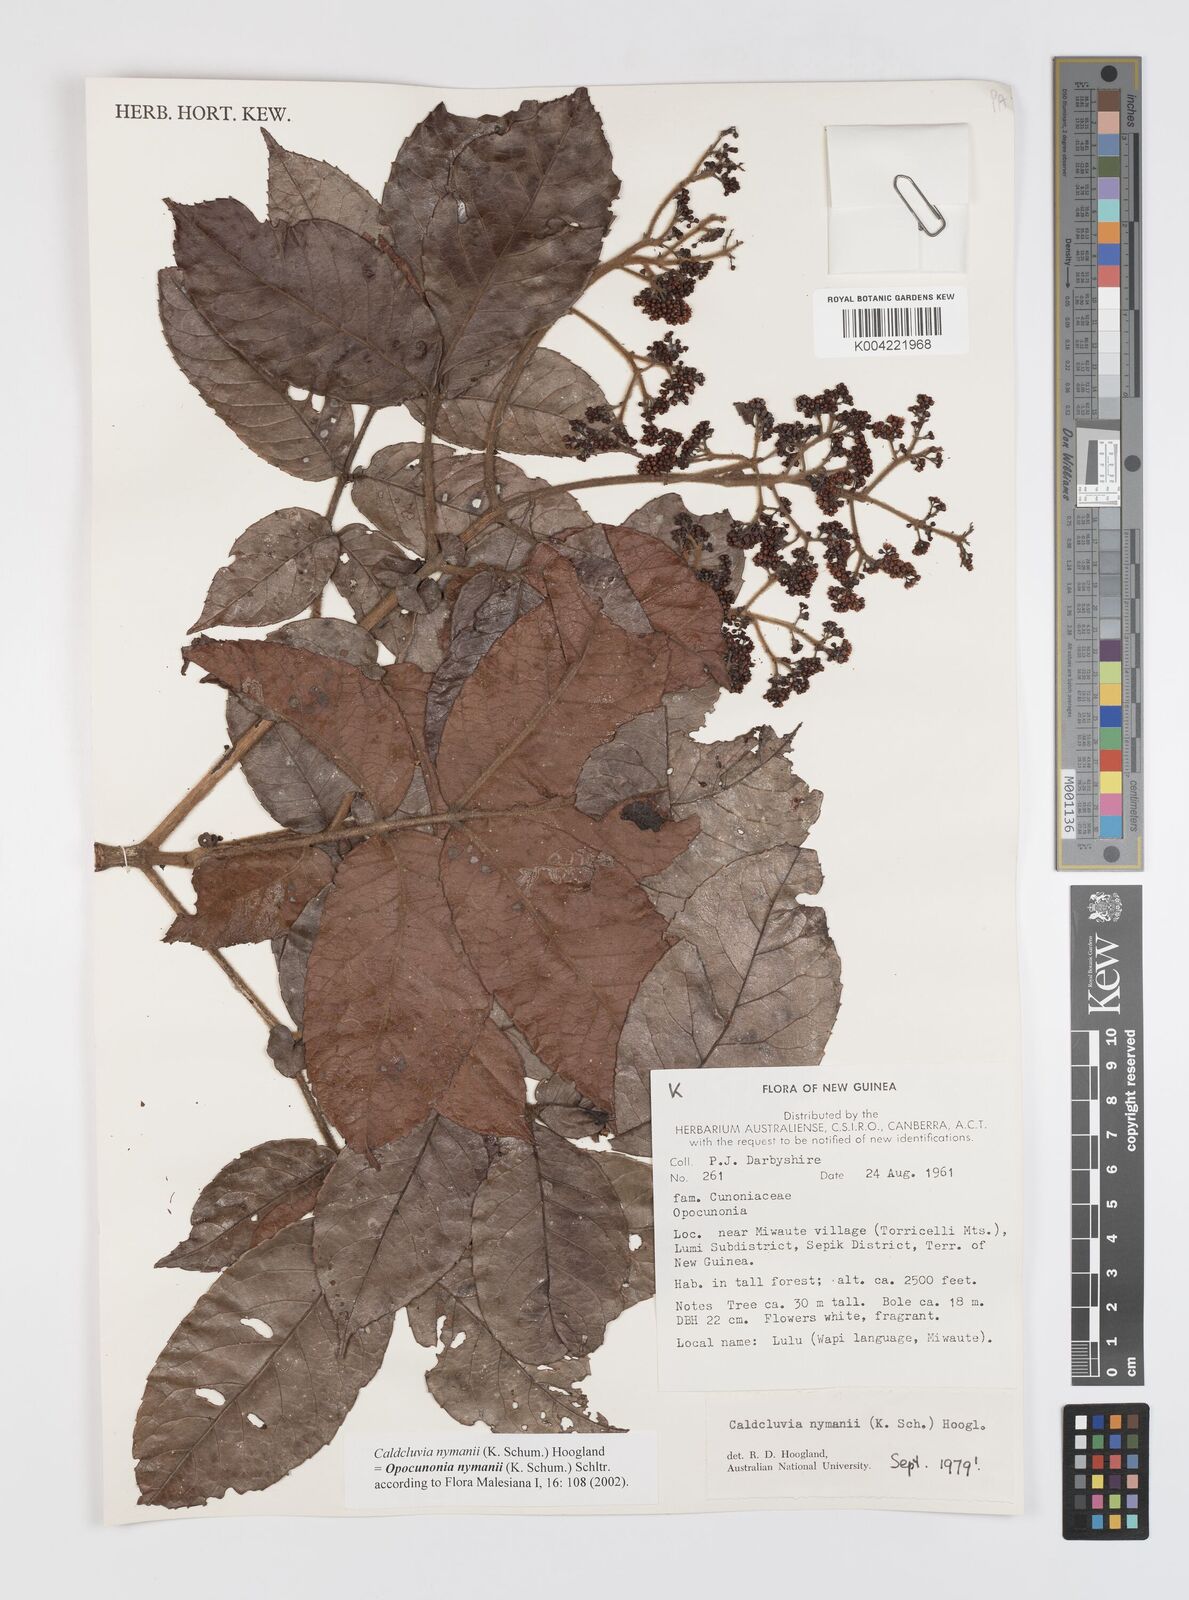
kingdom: Plantae
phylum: Tracheophyta
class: Magnoliopsida
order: Oxalidales
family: Cunoniaceae
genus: Opocunonia
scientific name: Opocunonia nymanii
